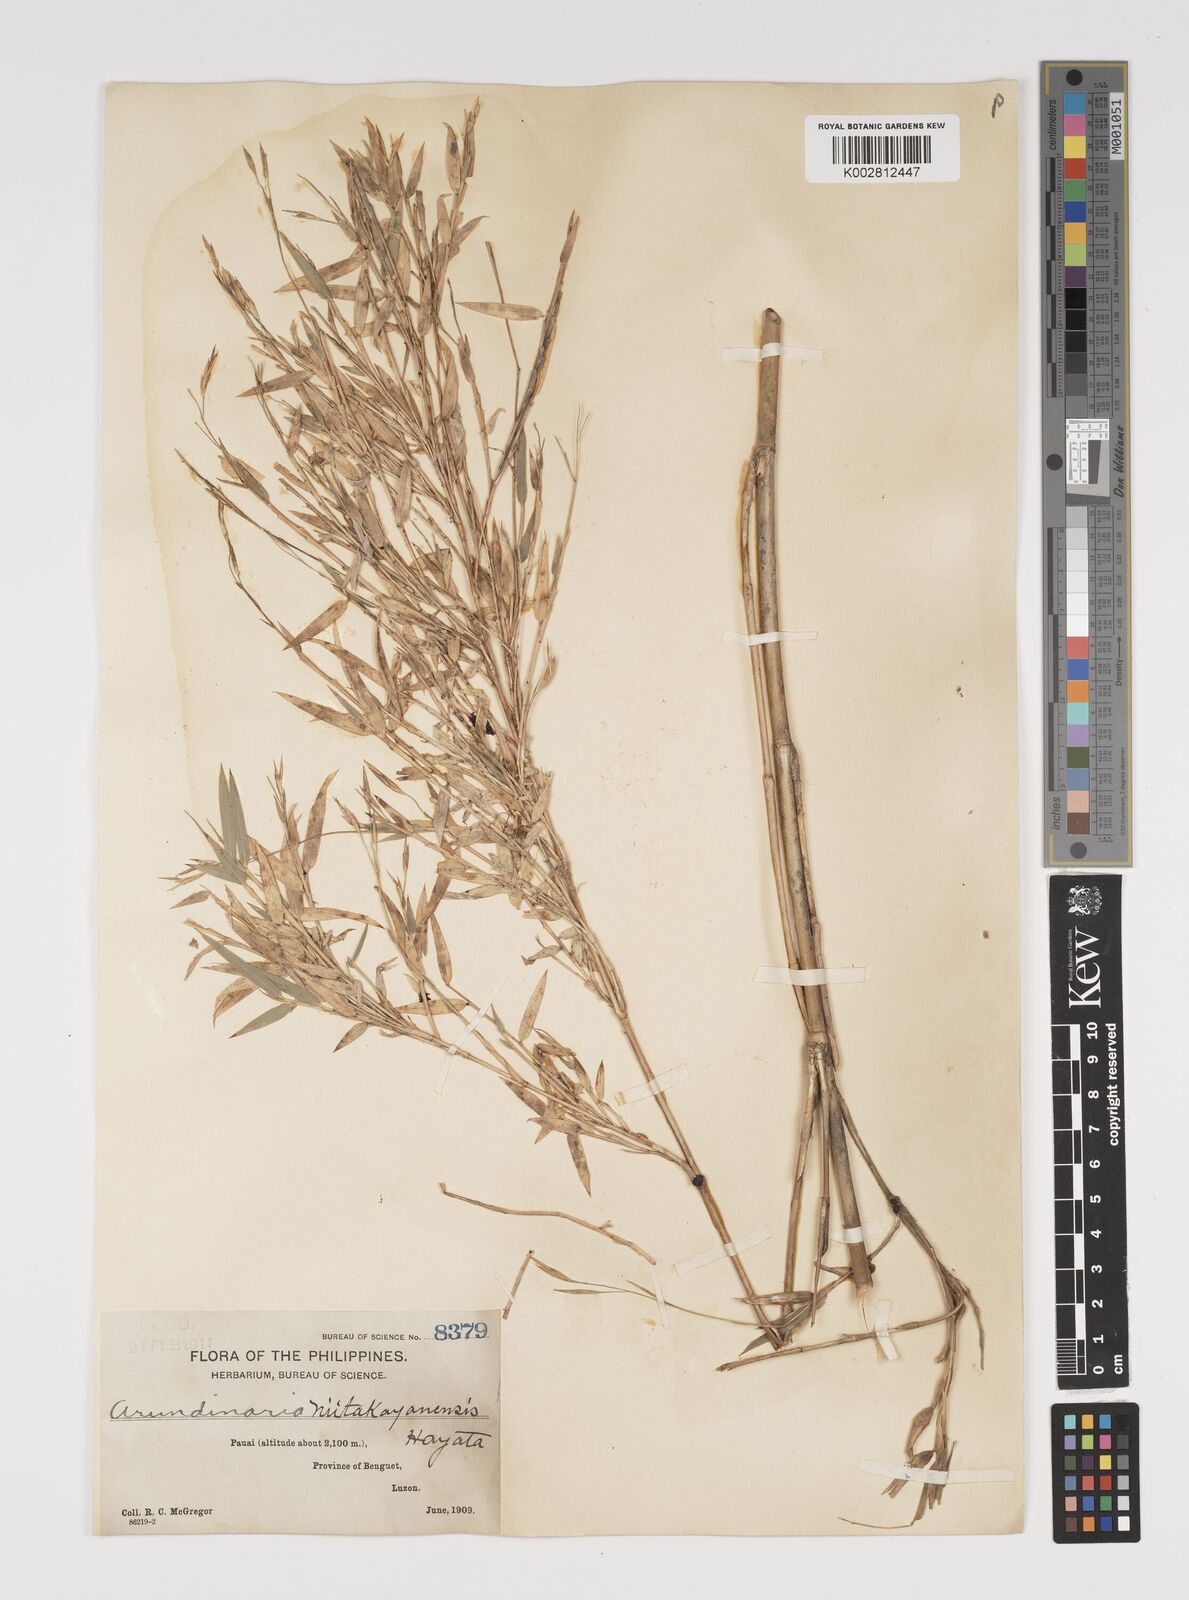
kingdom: Plantae
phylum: Tracheophyta
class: Liliopsida
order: Poales
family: Poaceae
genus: Yushania
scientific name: Yushania niitakayamensis
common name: Yushan cane
